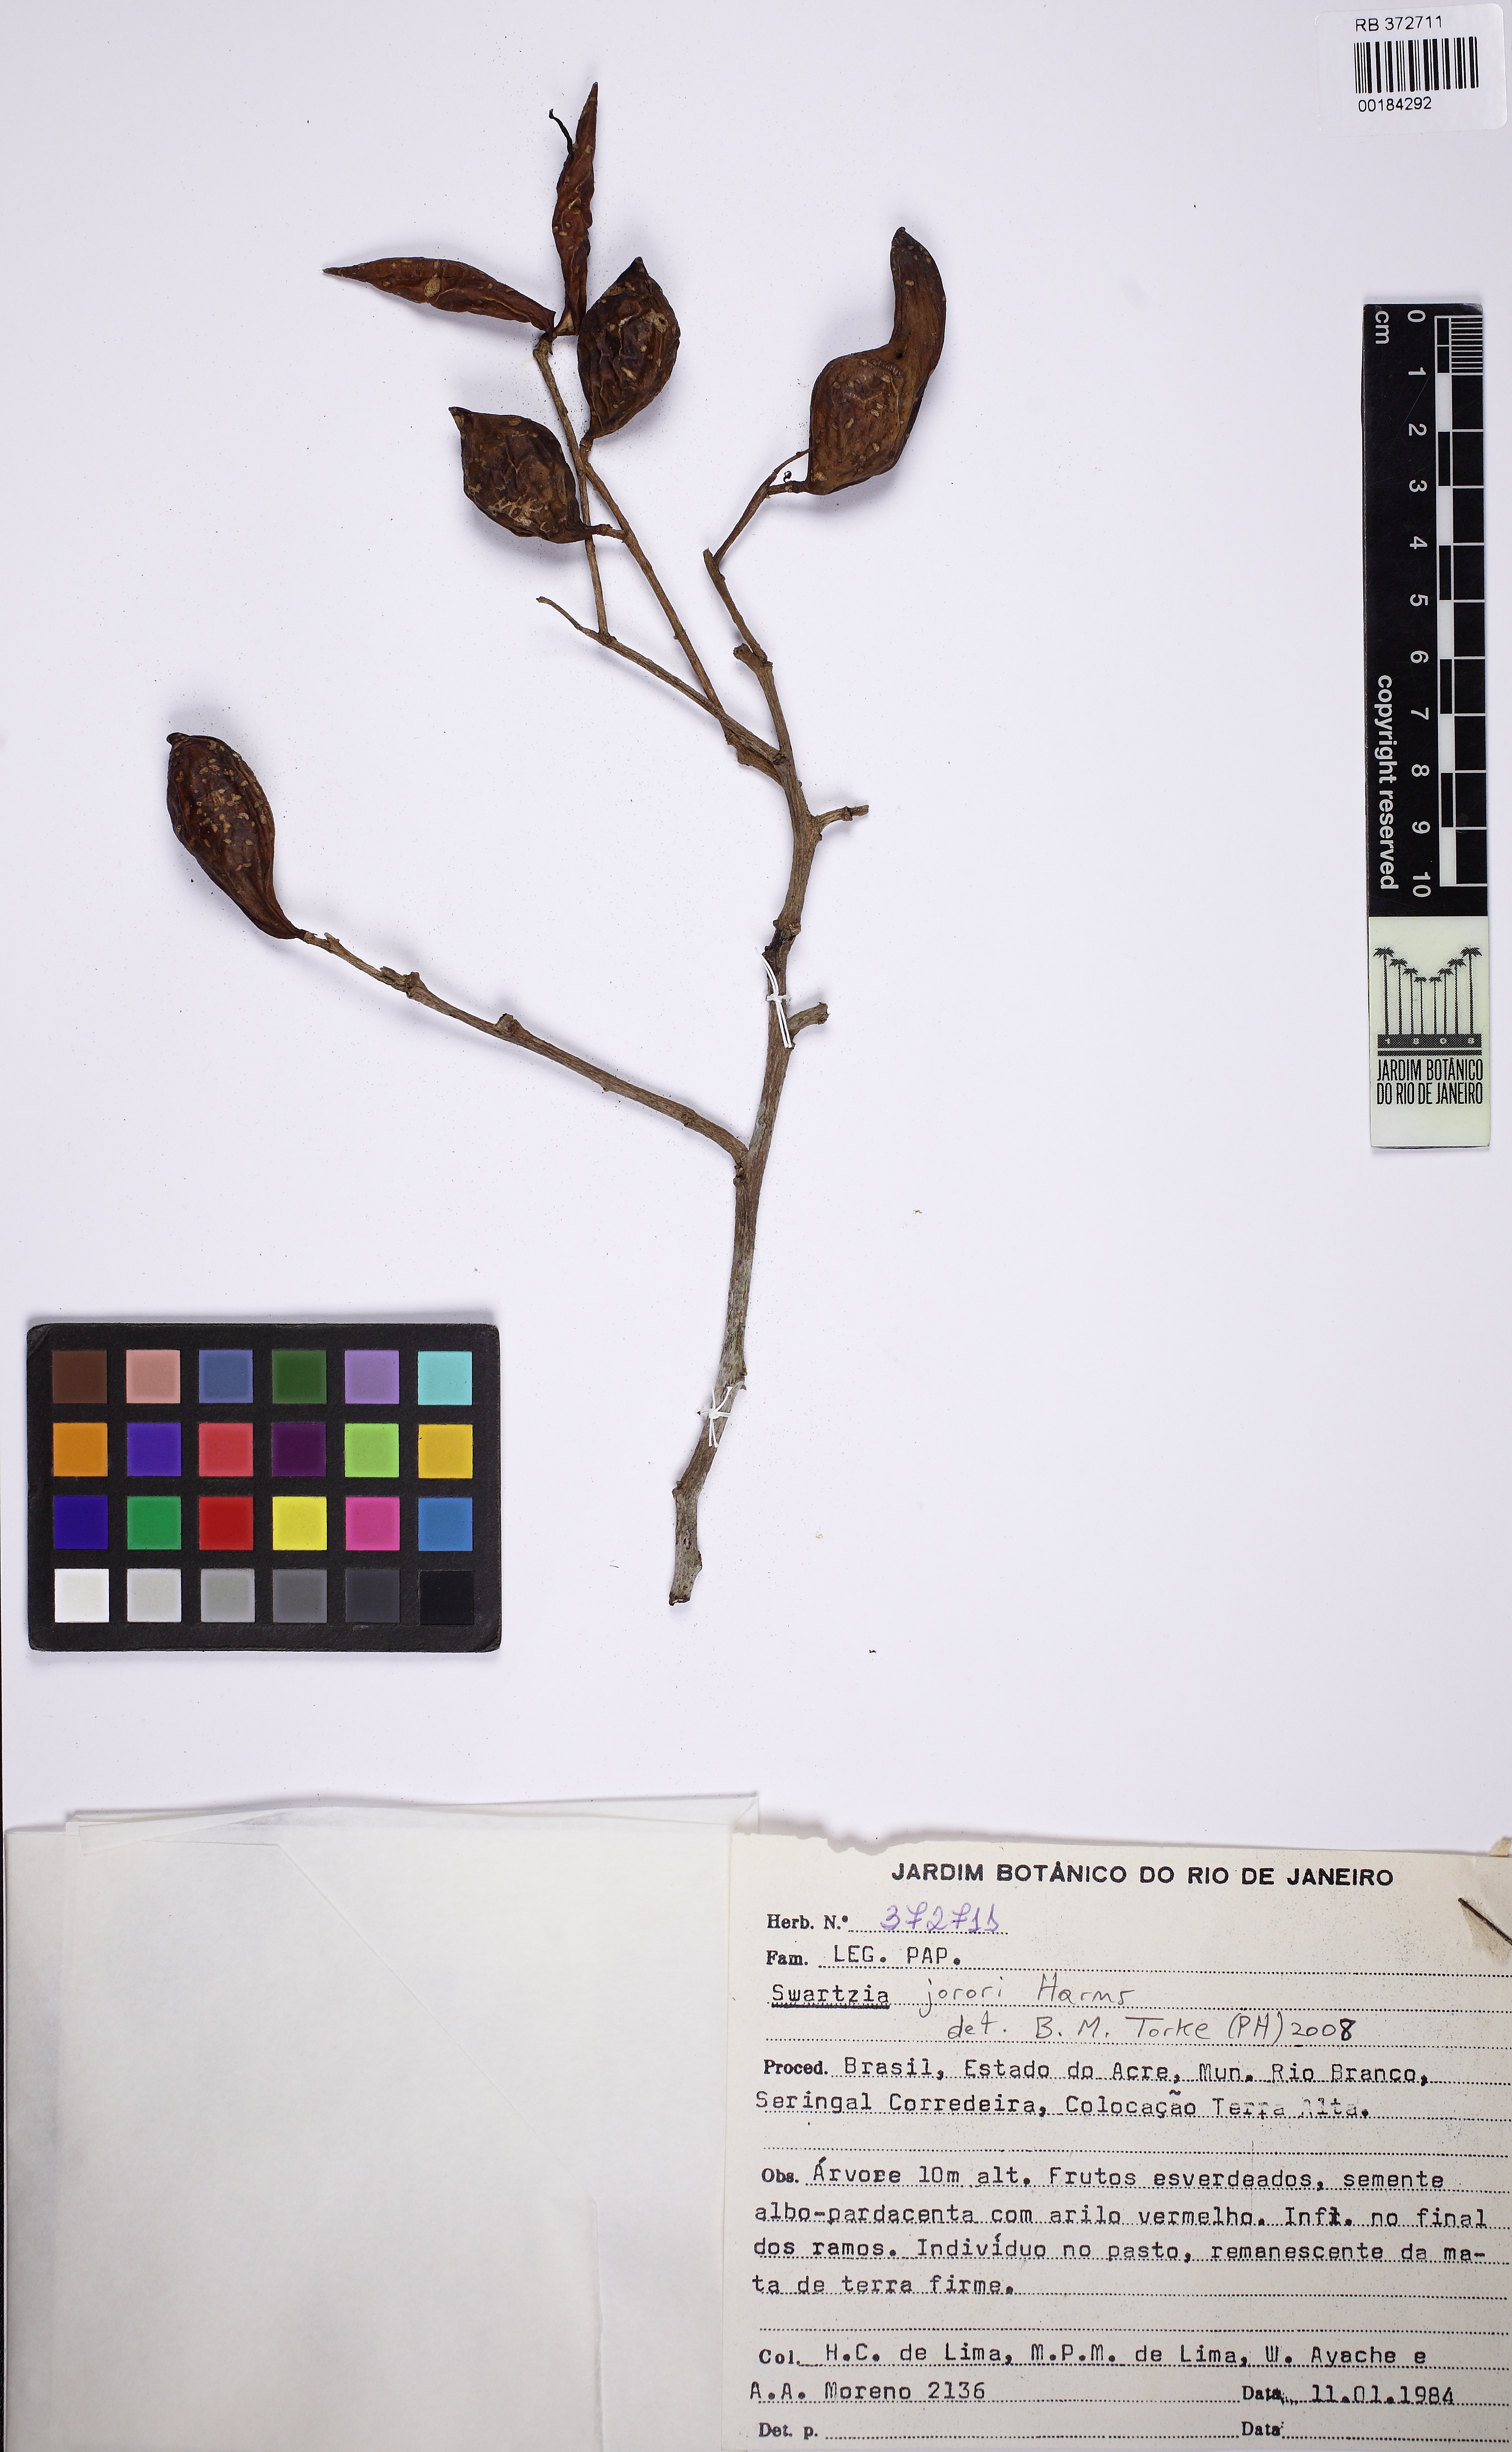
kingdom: Plantae
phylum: Tracheophyta
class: Magnoliopsida
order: Fabales
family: Fabaceae
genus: Swartzia
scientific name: Swartzia jorori
